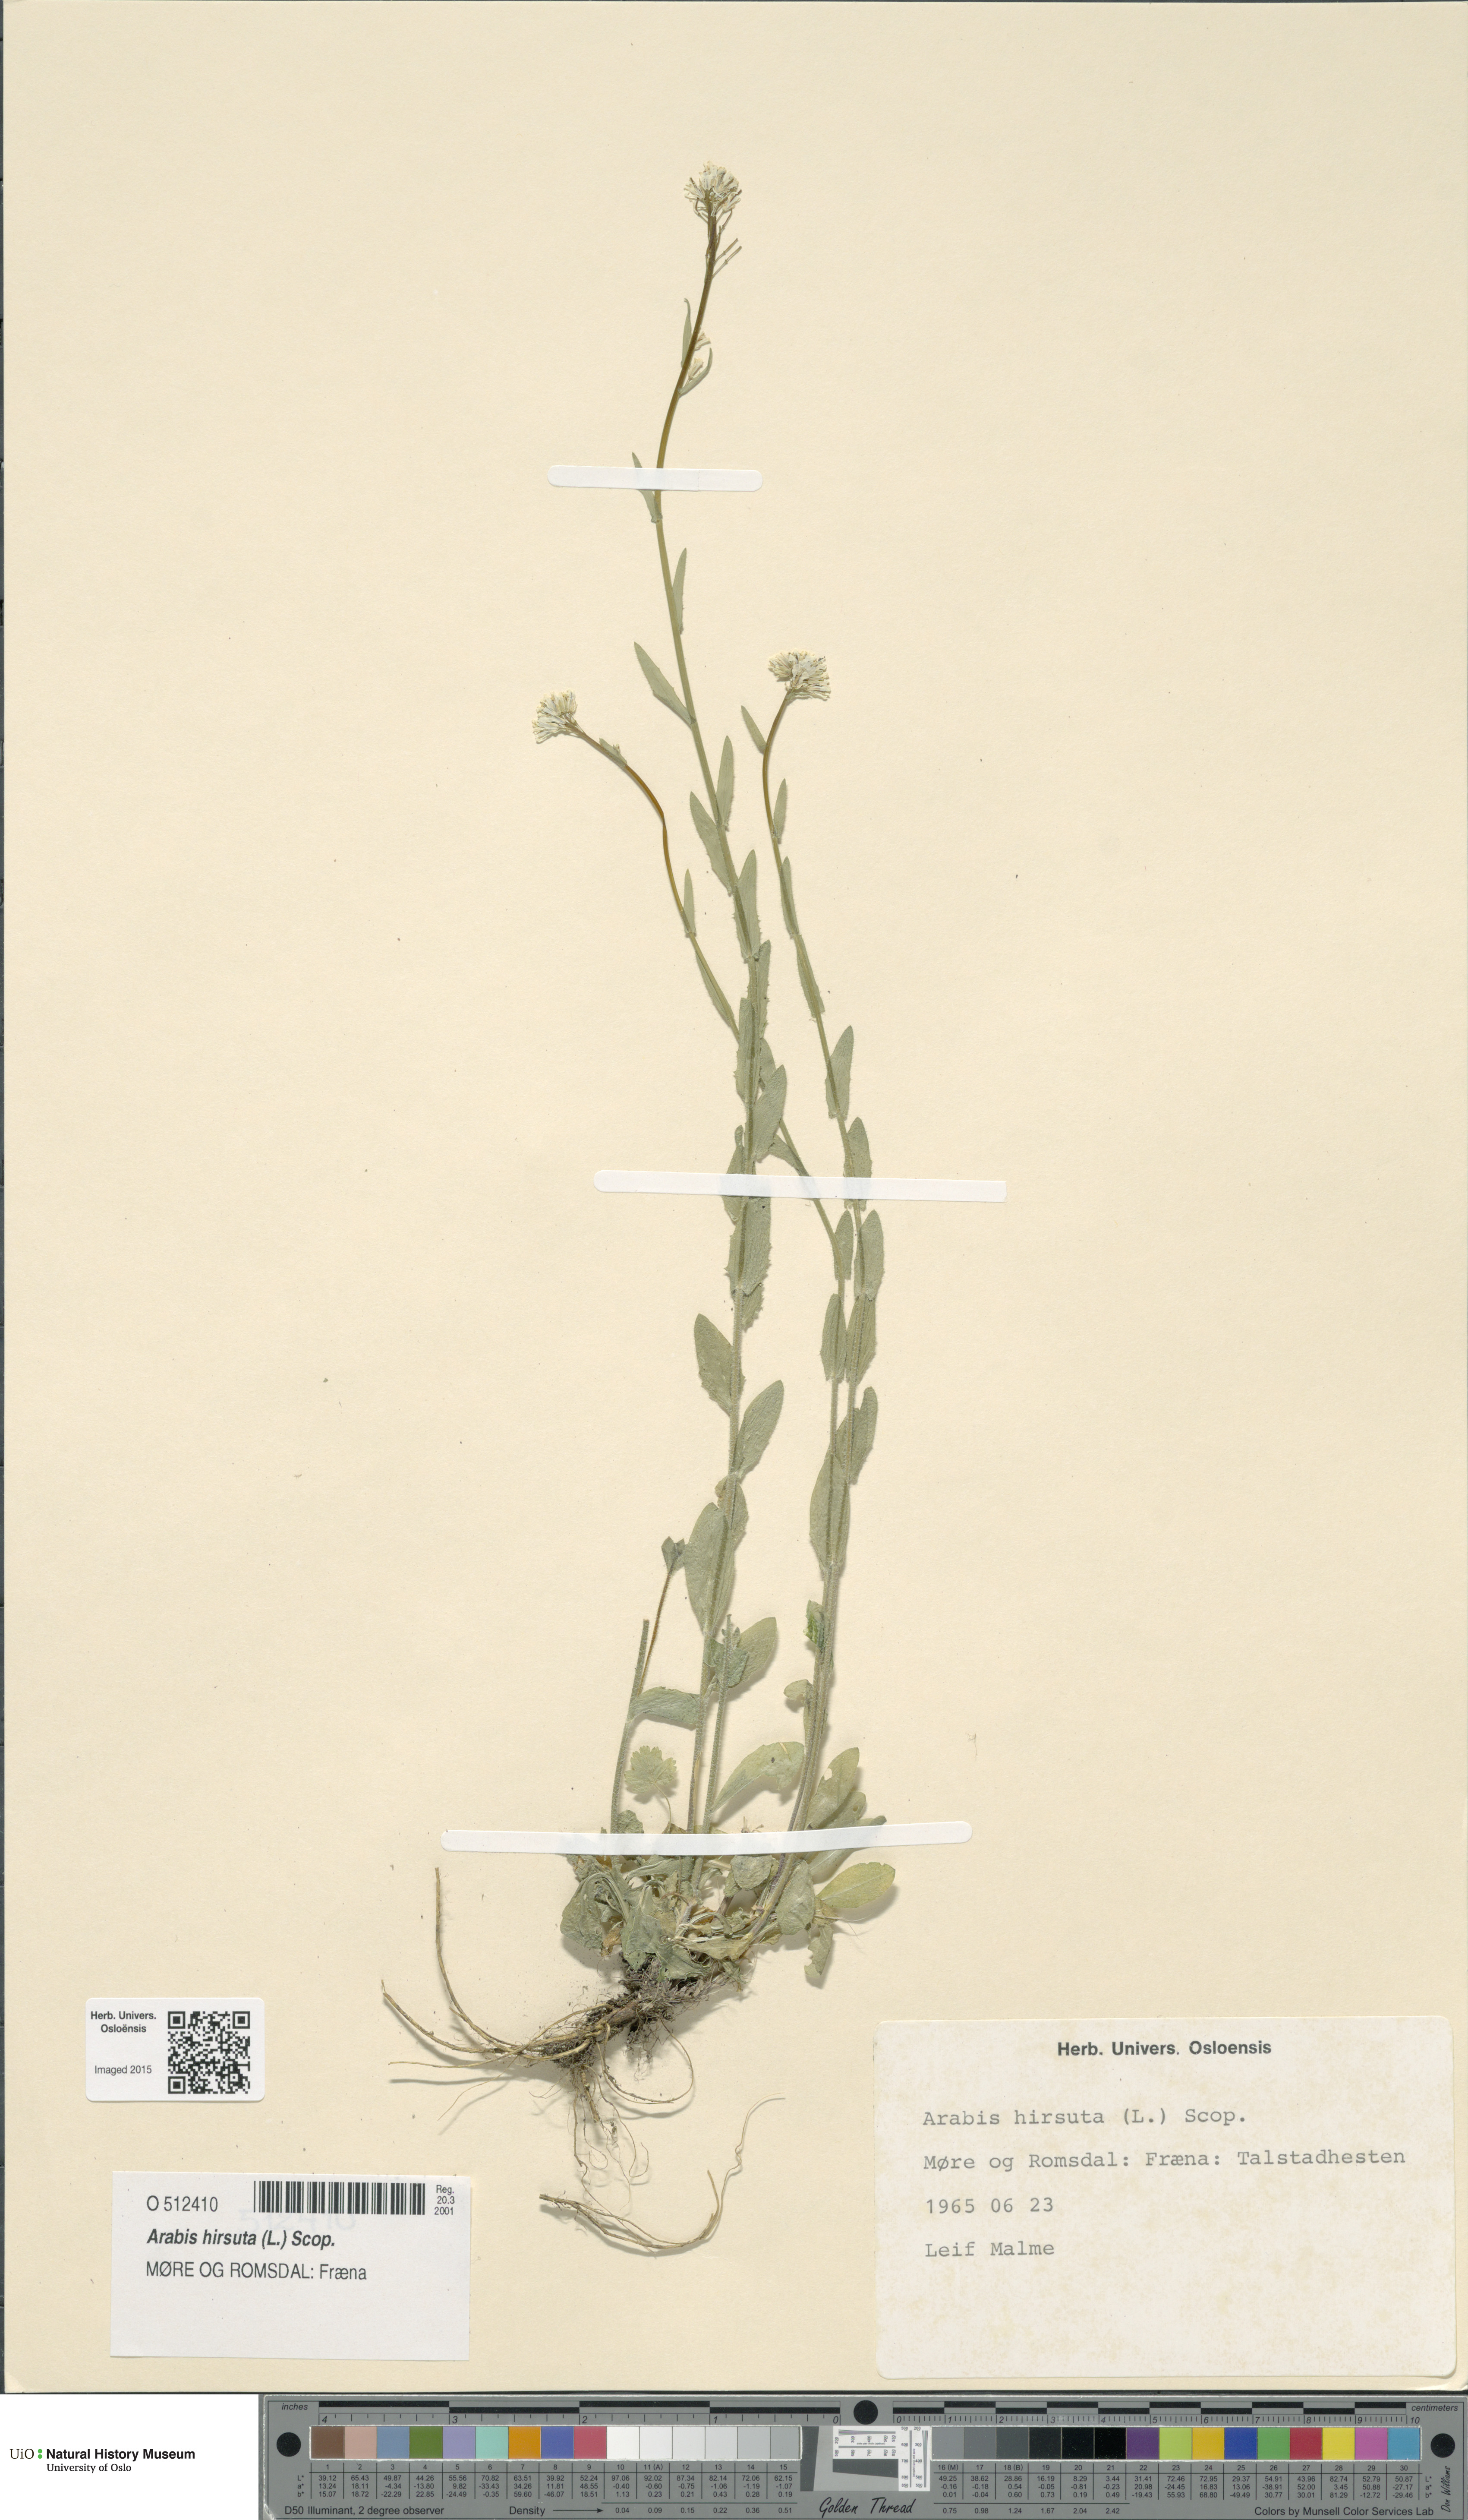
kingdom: Plantae
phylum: Tracheophyta
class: Magnoliopsida
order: Brassicales
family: Brassicaceae
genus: Arabis
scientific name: Arabis hirsuta
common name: Hairy rock-cress
